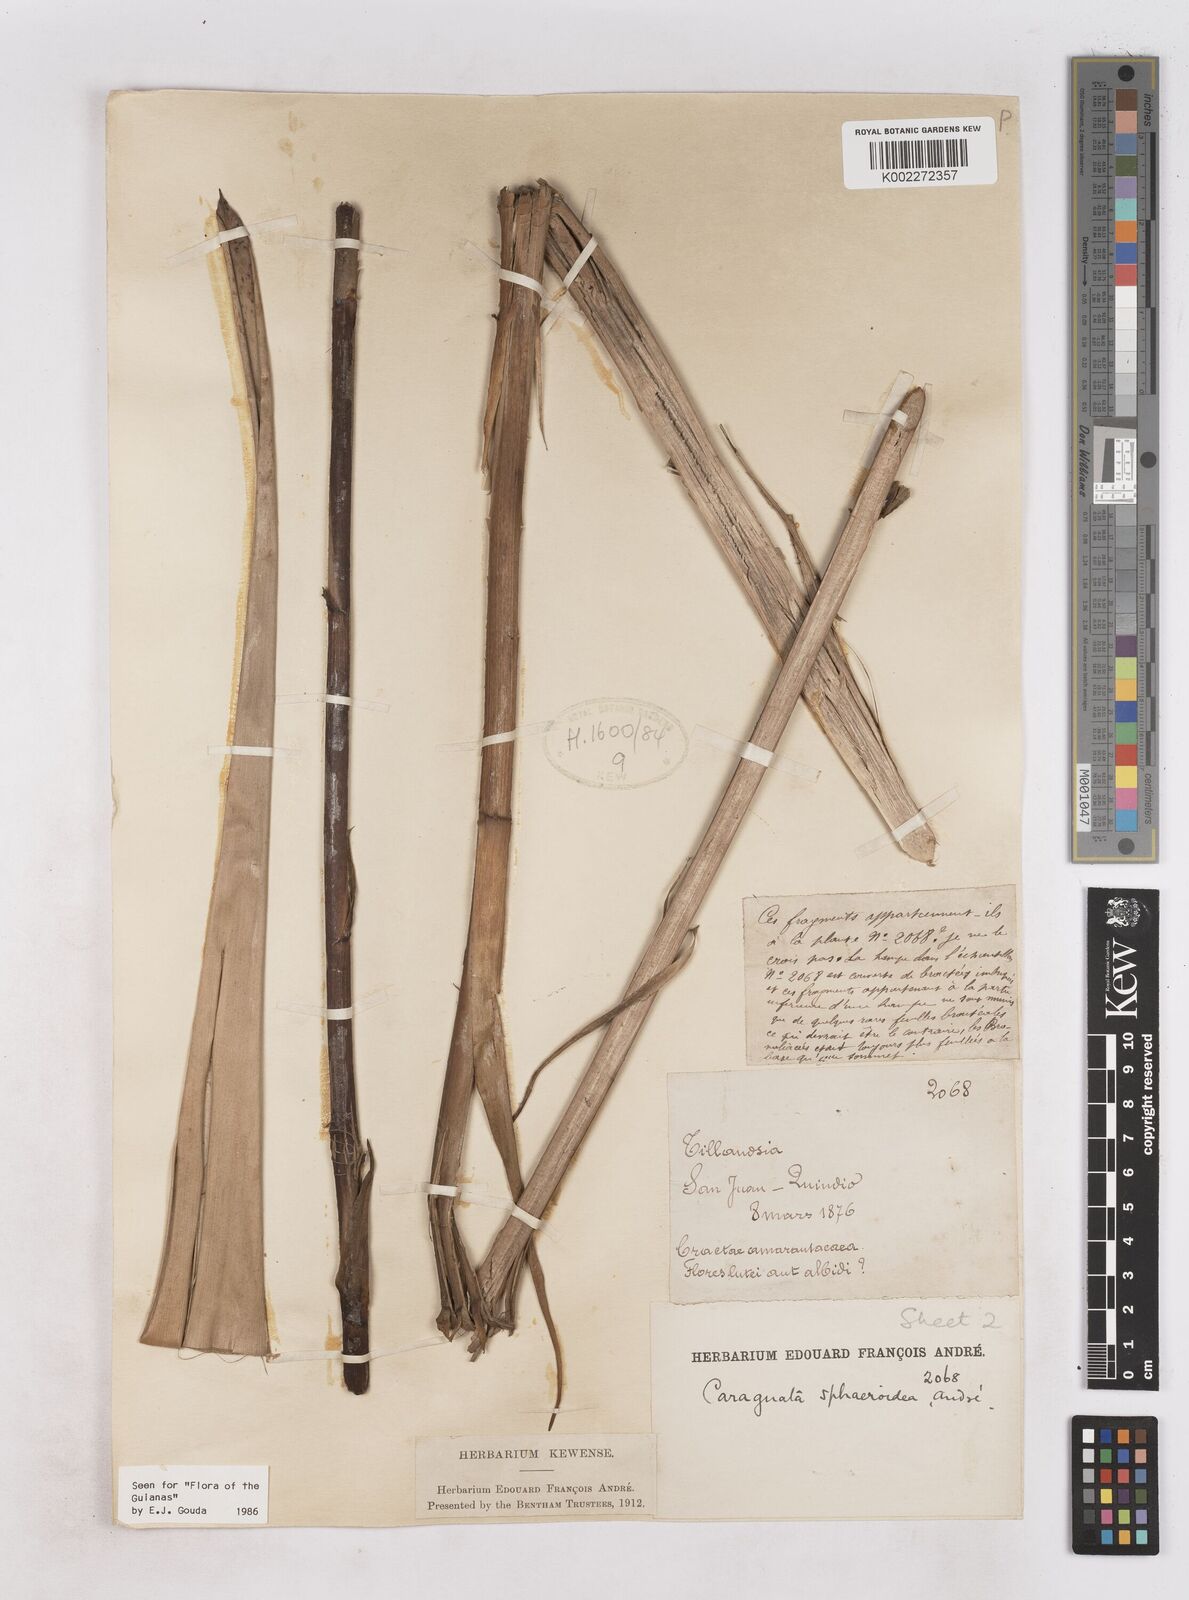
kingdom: Plantae
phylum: Tracheophyta
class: Liliopsida
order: Poales
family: Bromeliaceae
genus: Guzmania
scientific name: Guzmania sphaeroidea
